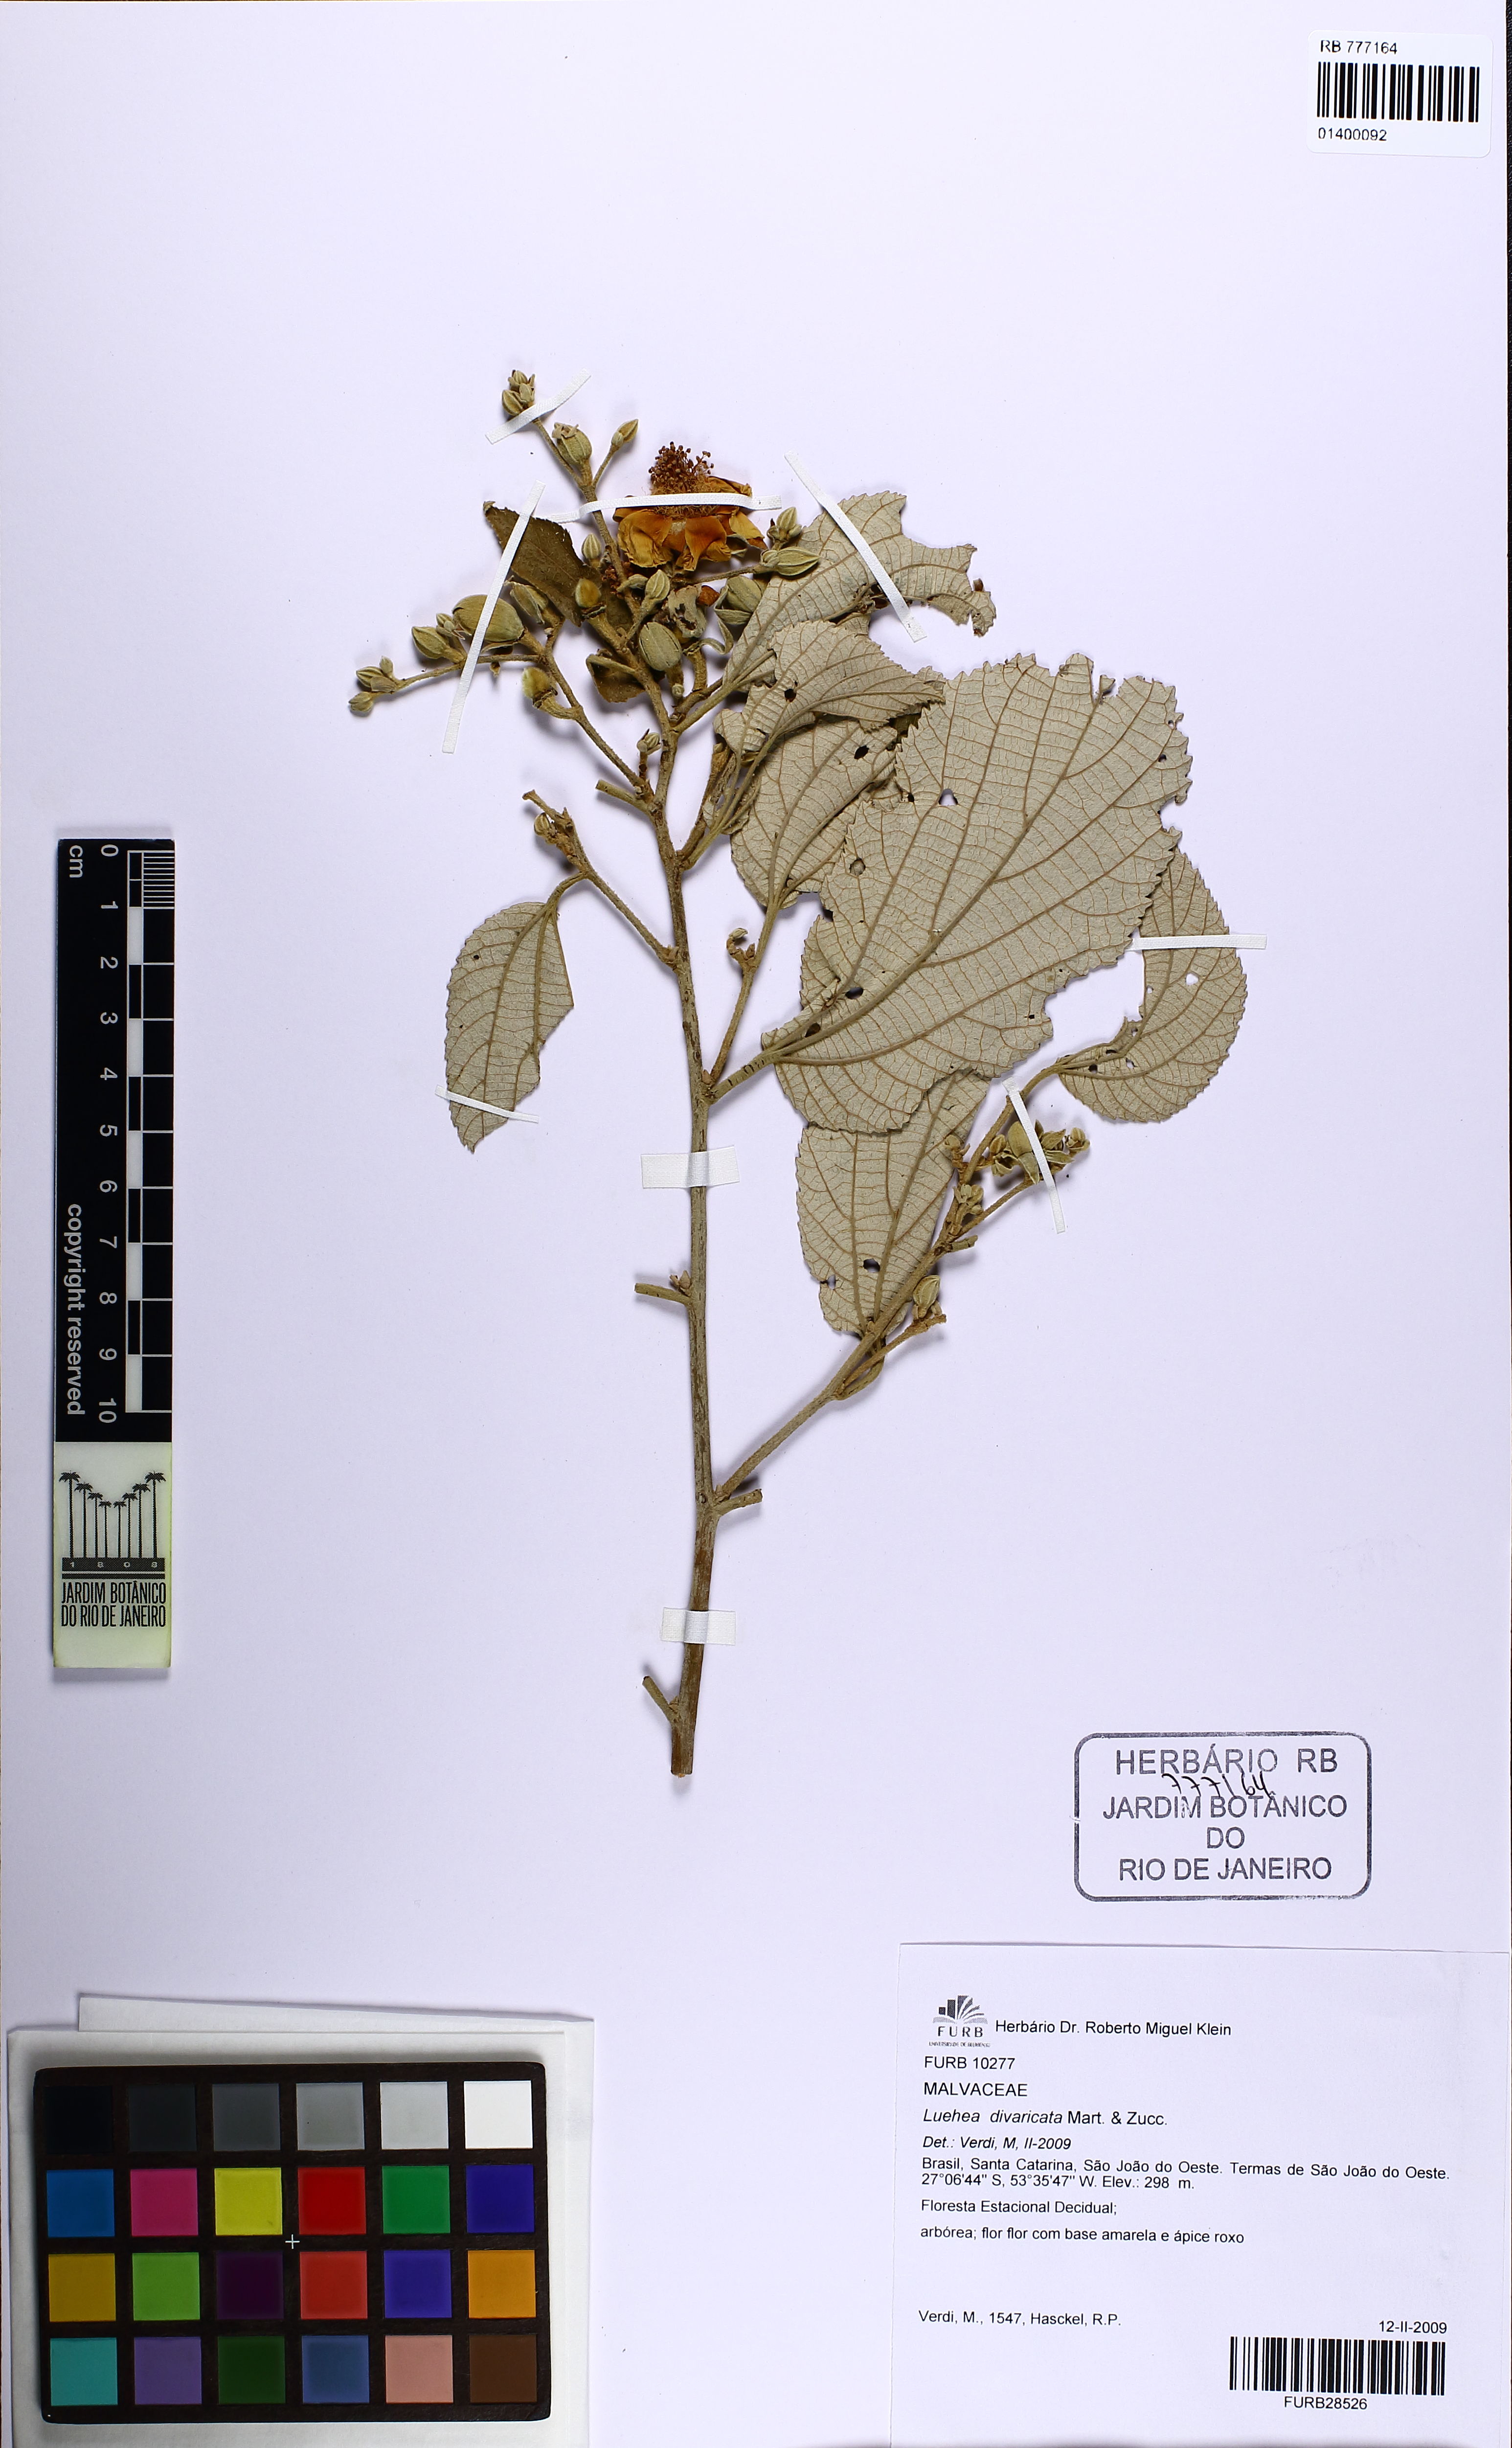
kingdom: Plantae
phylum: Tracheophyta
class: Magnoliopsida
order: Malvales
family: Malvaceae
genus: Luehea
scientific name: Luehea divaricata
